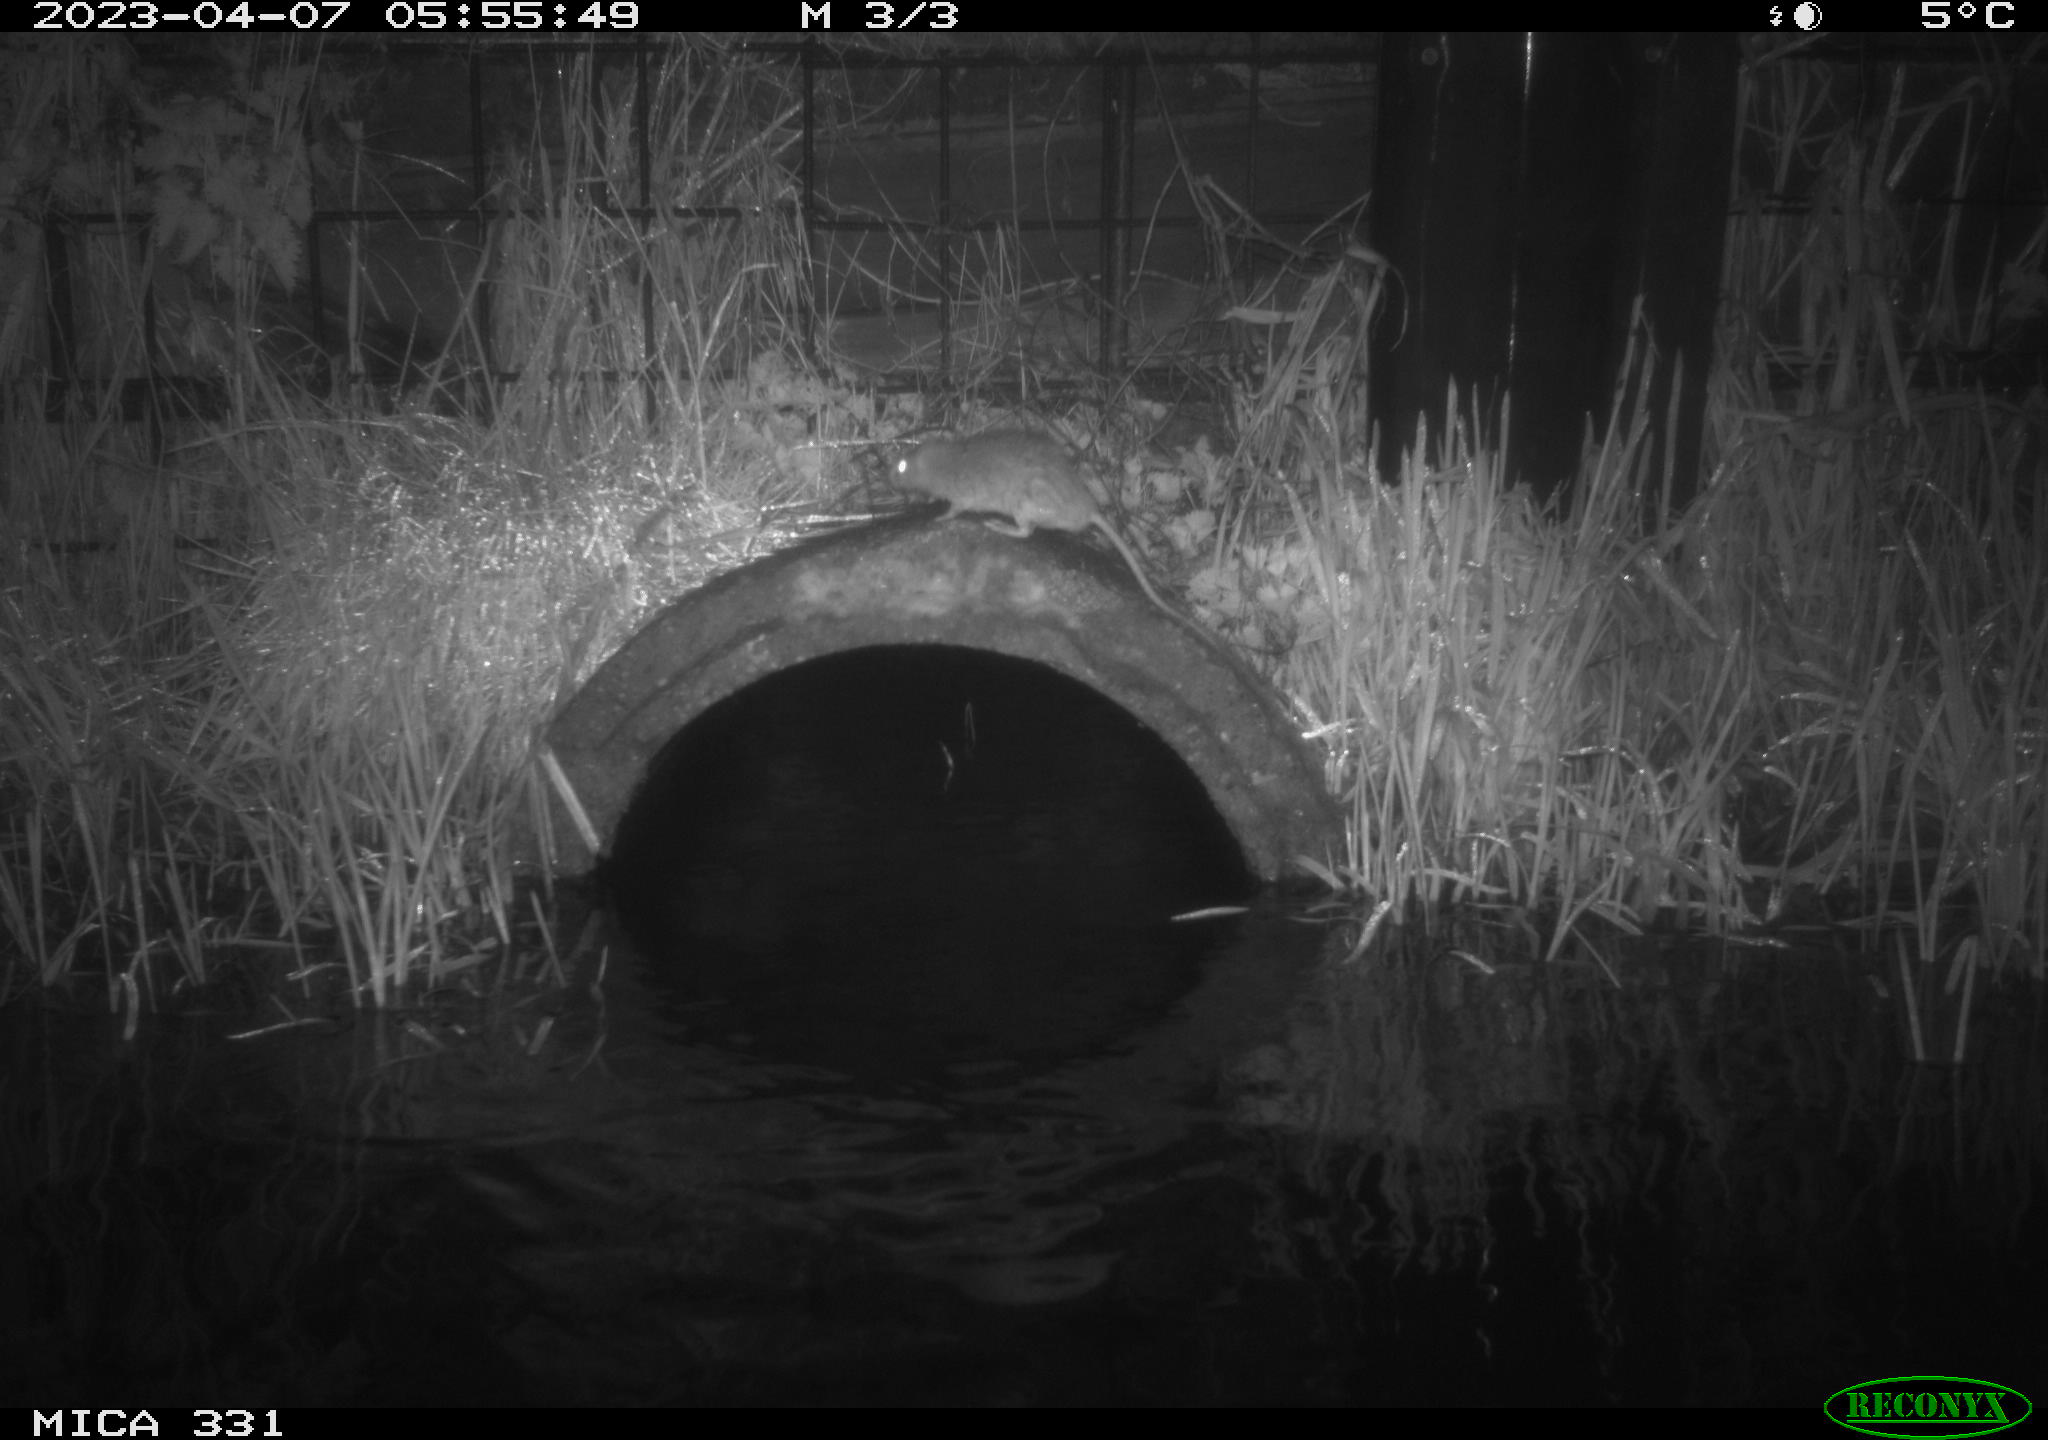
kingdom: Animalia
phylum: Chordata
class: Mammalia
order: Rodentia
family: Muridae
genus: Rattus
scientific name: Rattus norvegicus
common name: Brown rat
